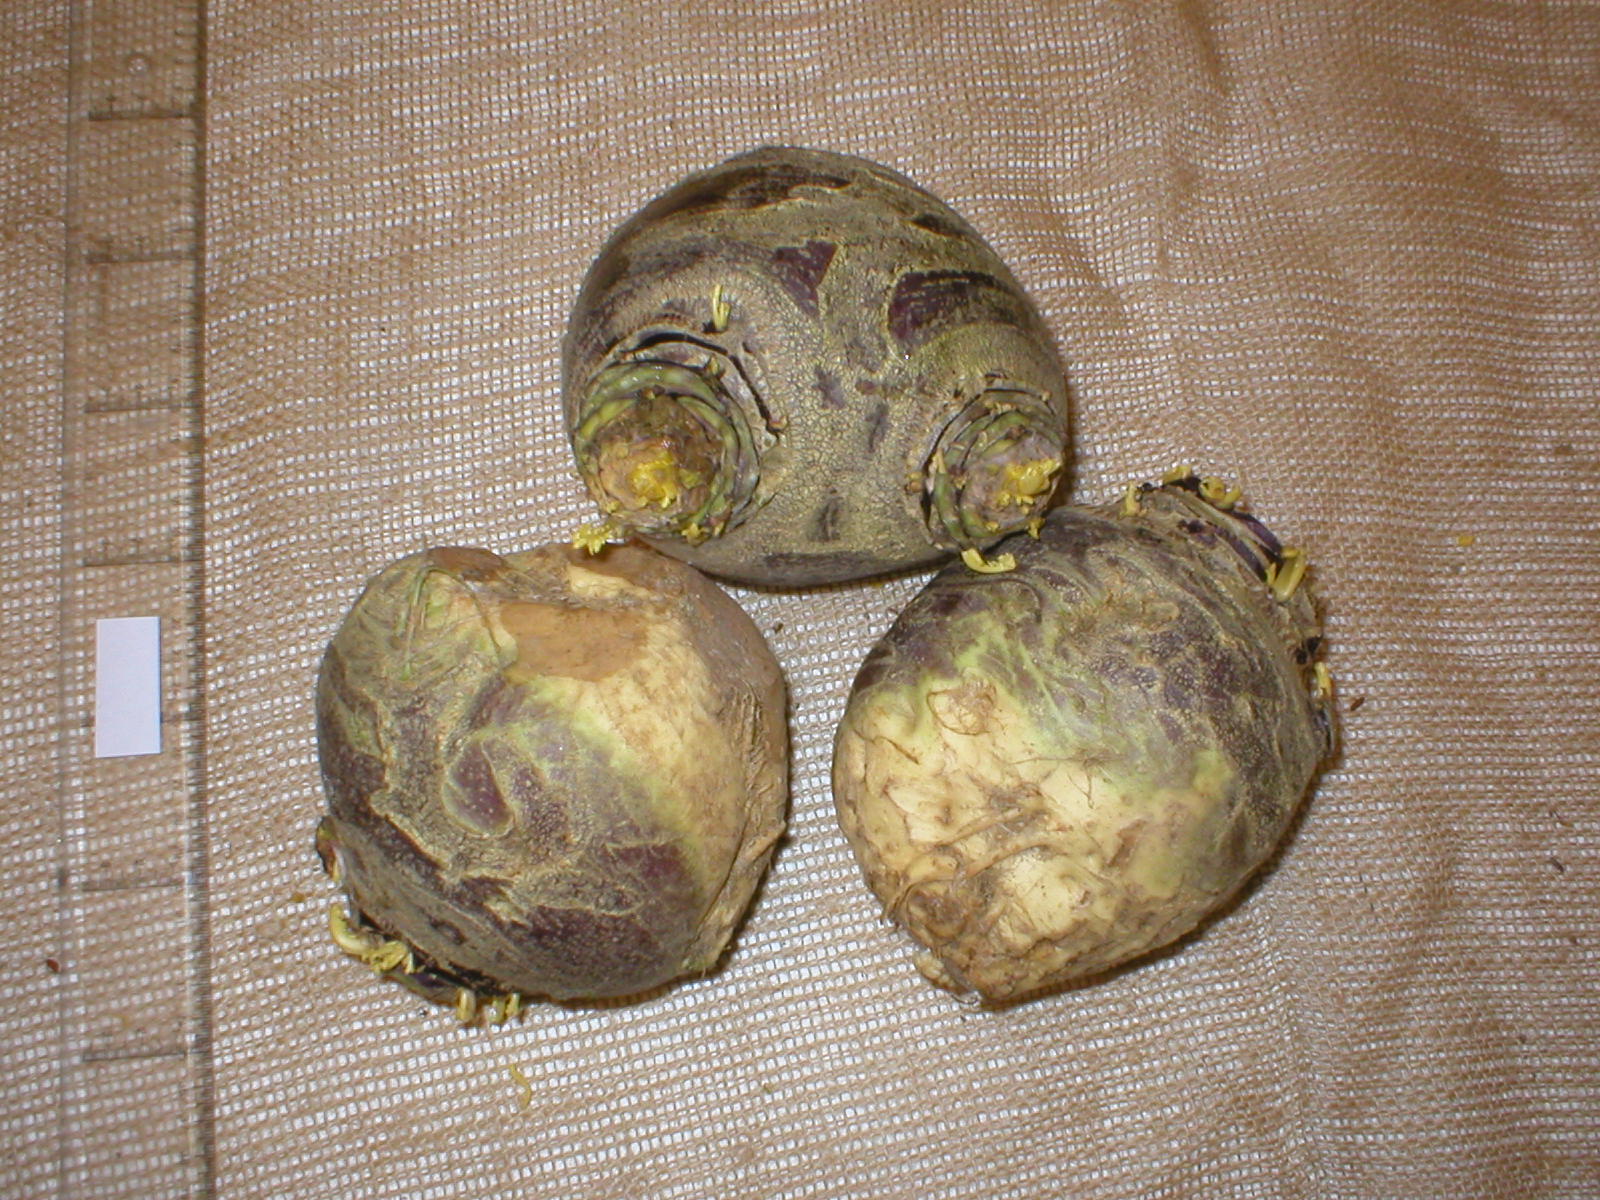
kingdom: Plantae
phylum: Tracheophyta
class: Magnoliopsida
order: Brassicales
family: Brassicaceae
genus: Brassica
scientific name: Brassica napus
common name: Rape
